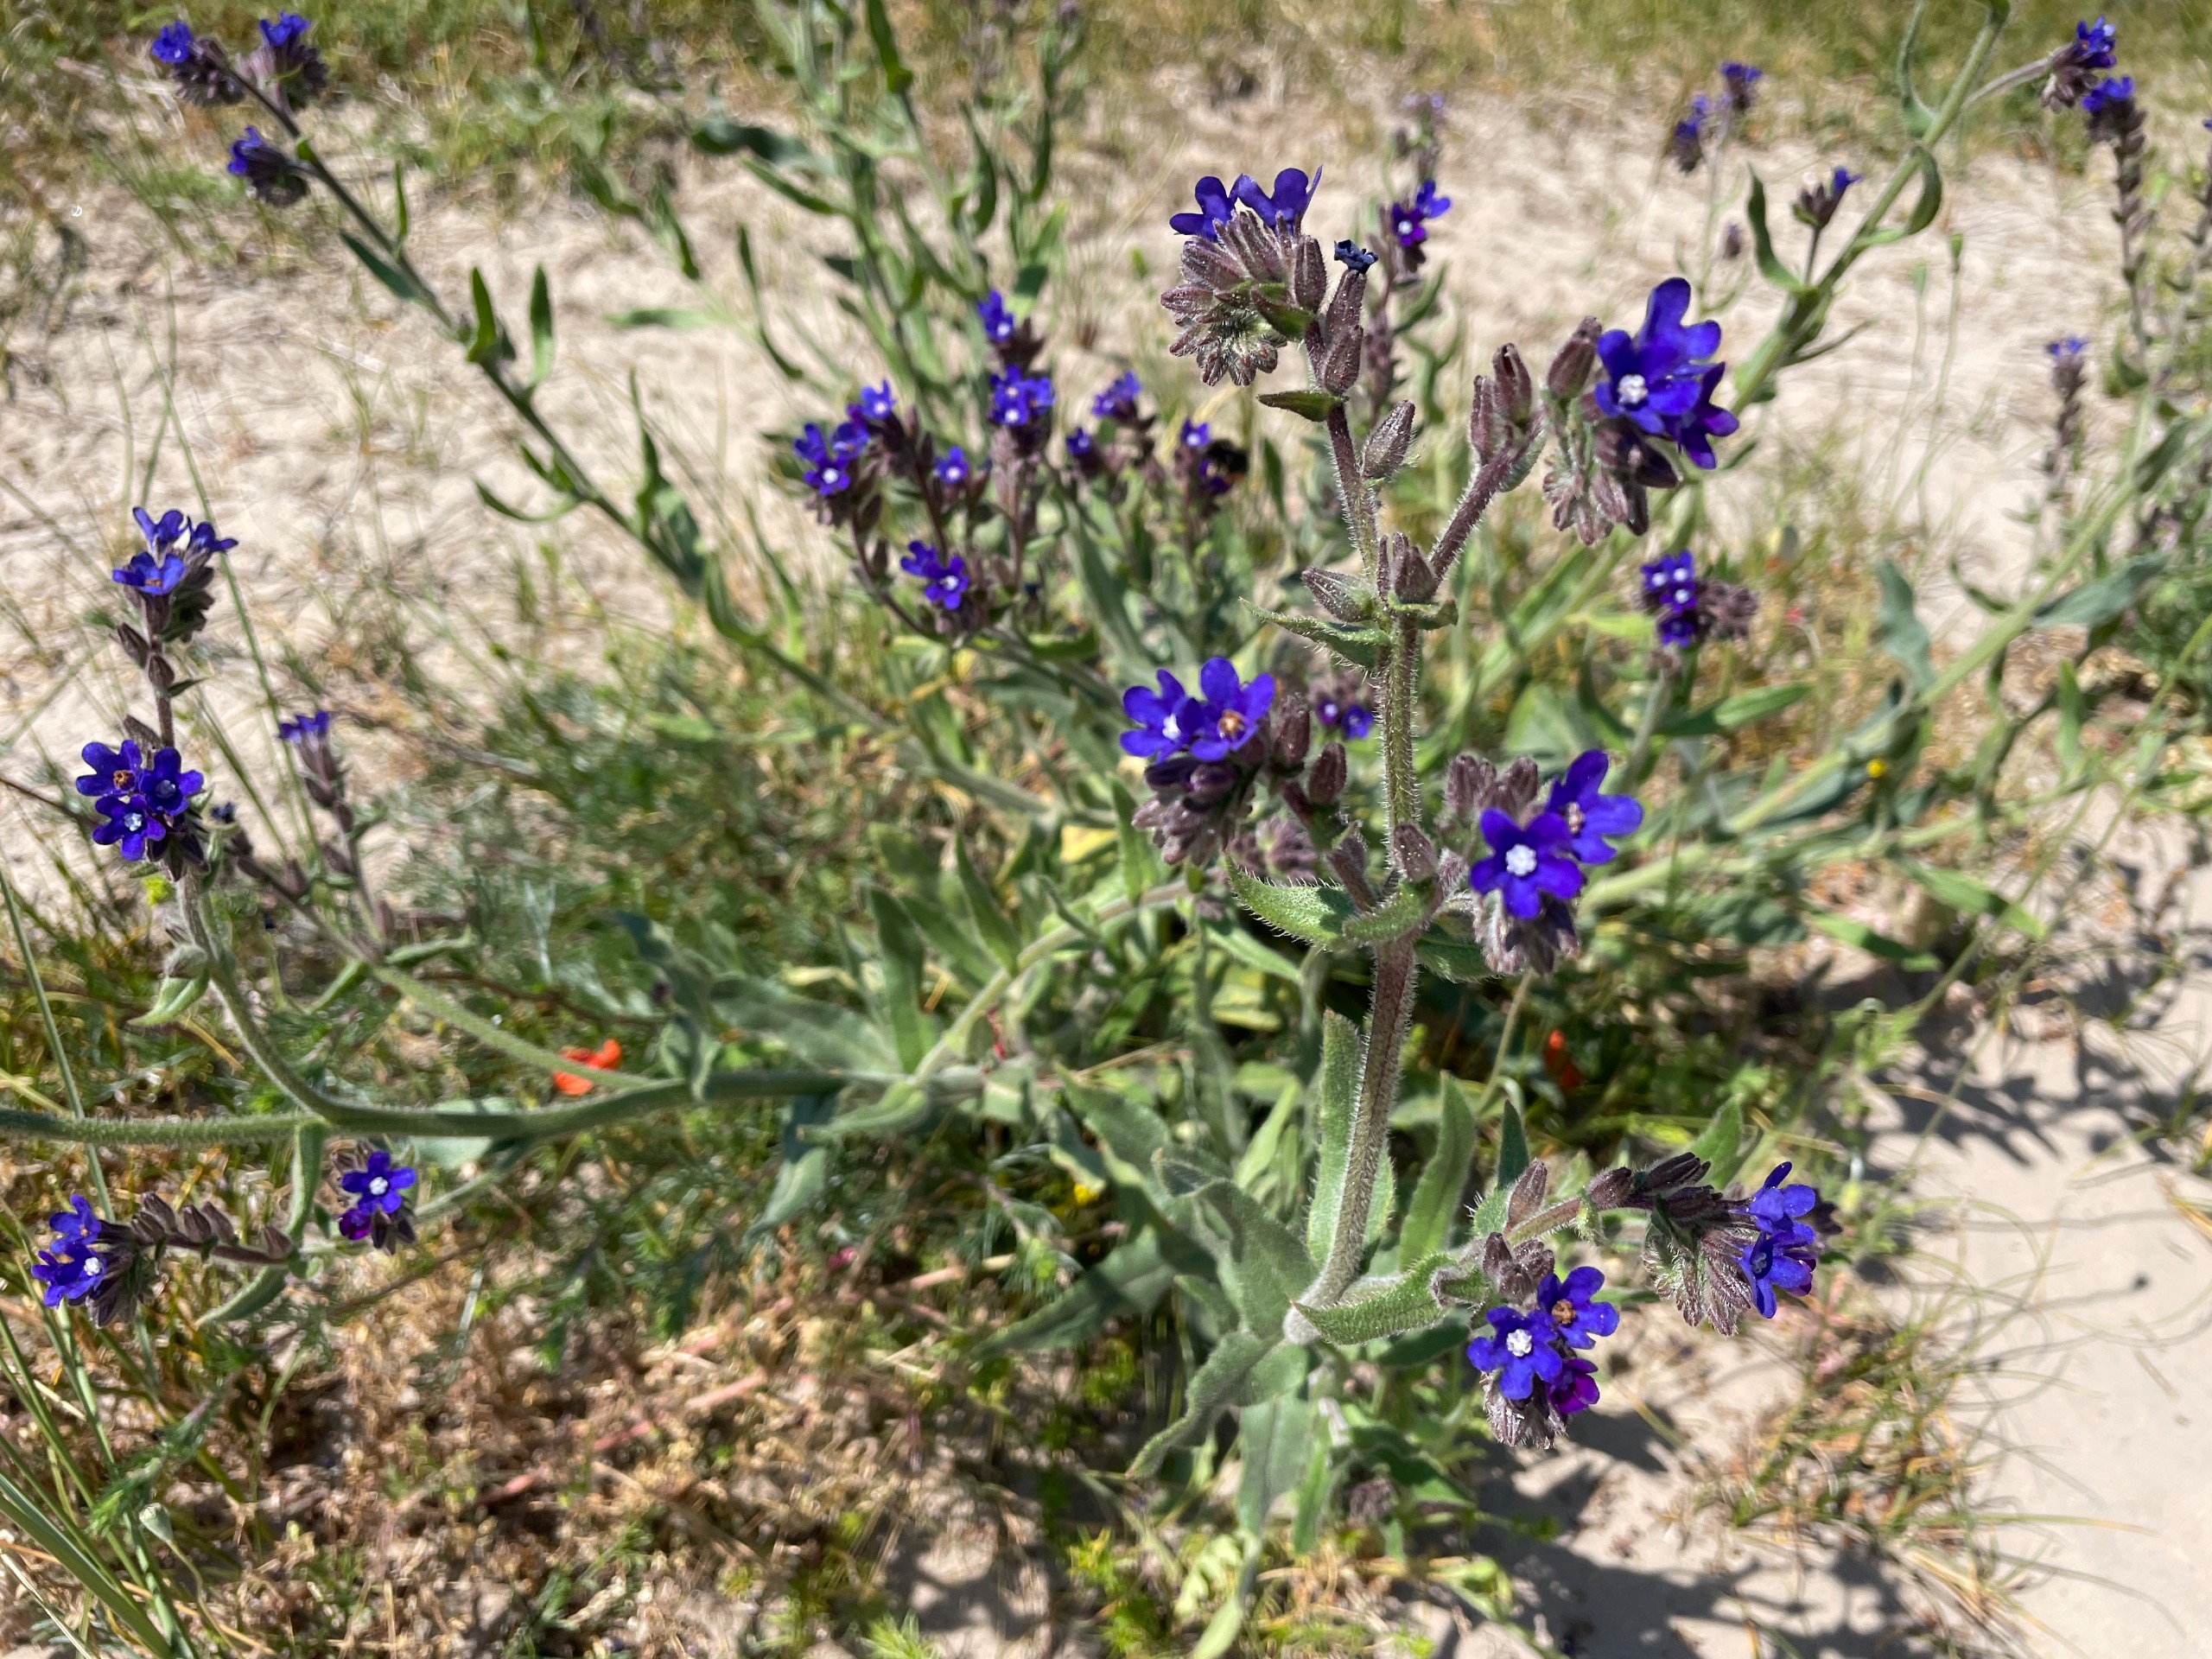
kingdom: Plantae
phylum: Tracheophyta
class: Magnoliopsida
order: Boraginales
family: Boraginaceae
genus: Anchusa
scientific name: Anchusa officinalis
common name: Læge-oksetunge
